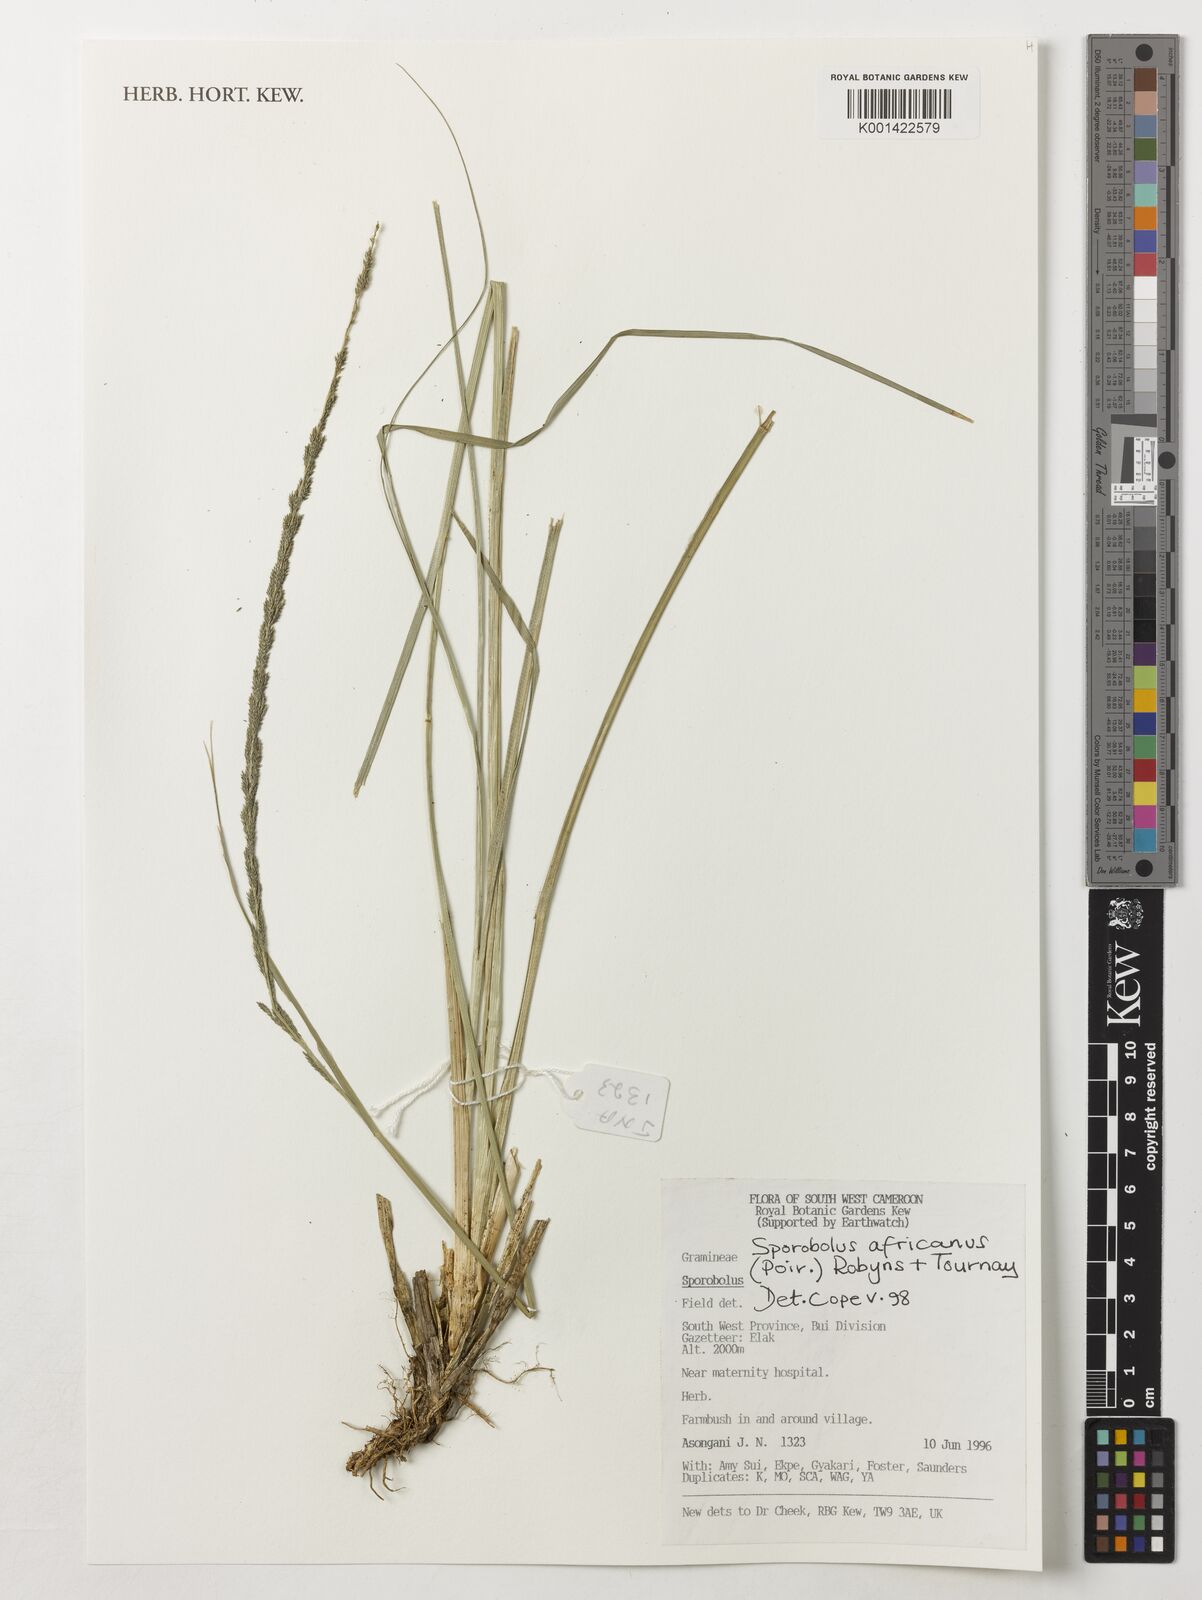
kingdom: Plantae
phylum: Tracheophyta
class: Liliopsida
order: Poales
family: Poaceae
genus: Sporobolus
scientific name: Sporobolus africanus
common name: African dropseed
